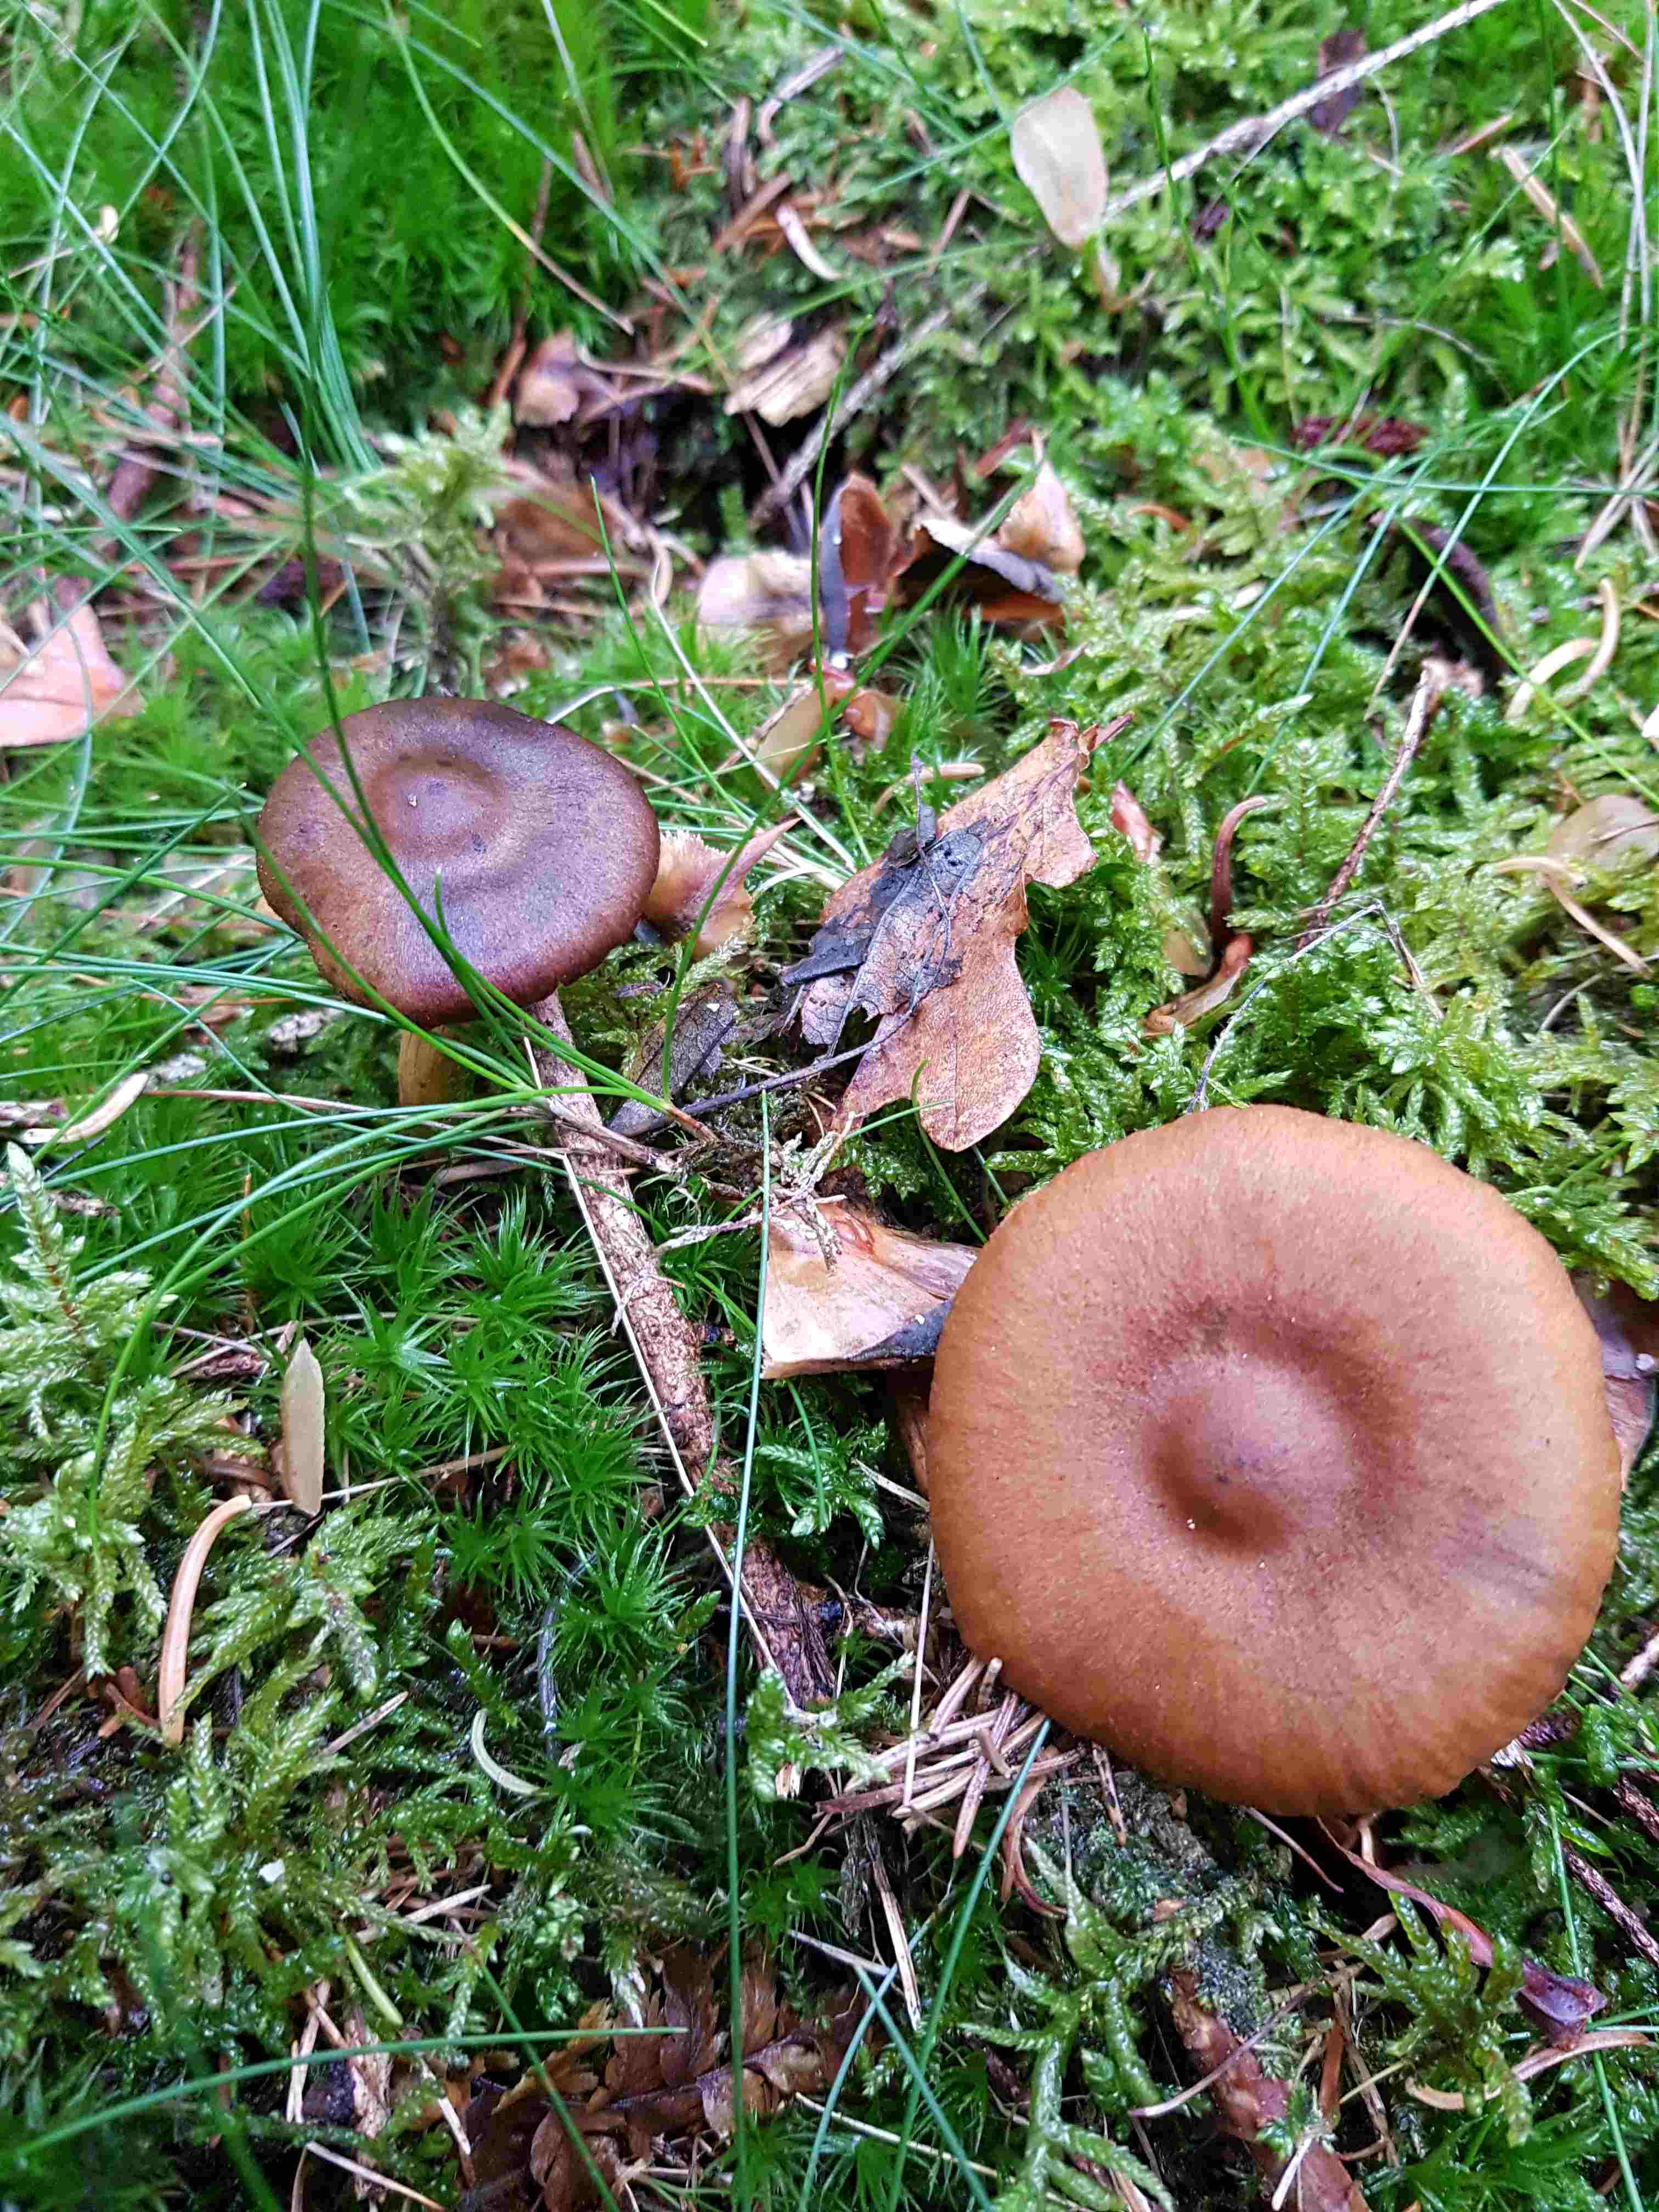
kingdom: Fungi
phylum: Basidiomycota
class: Agaricomycetes
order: Agaricales
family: Cortinariaceae
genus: Cortinarius
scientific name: Cortinarius
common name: cinnoberbladet slørhat
